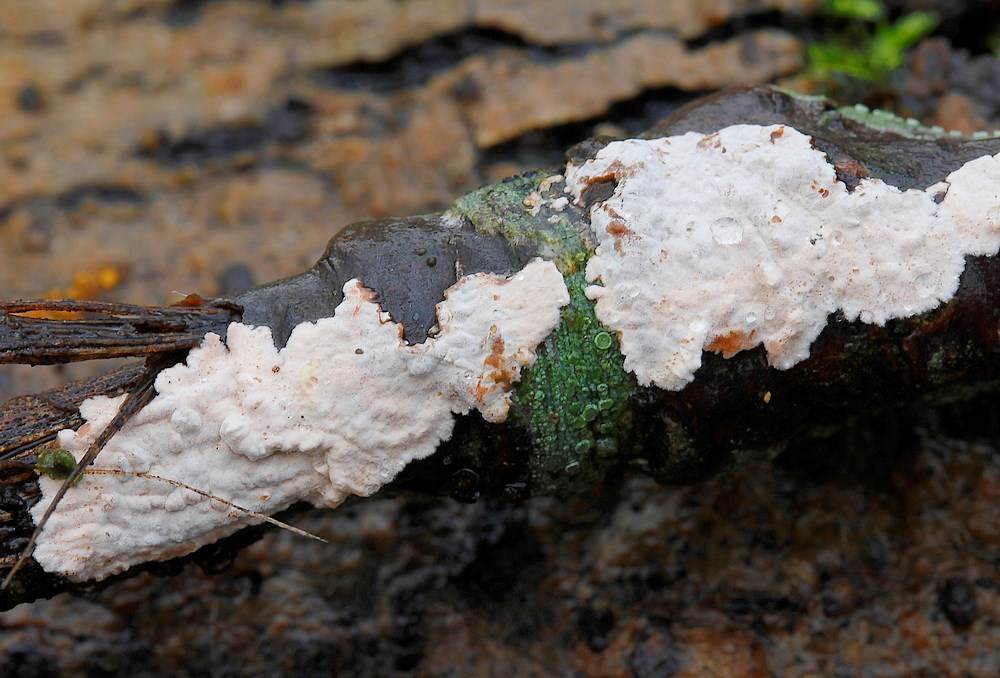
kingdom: Fungi
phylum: Basidiomycota
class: Agaricomycetes
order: Russulales
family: Peniophoraceae
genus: Peniophora
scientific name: Peniophora polygonia
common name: polygon-voksskind
